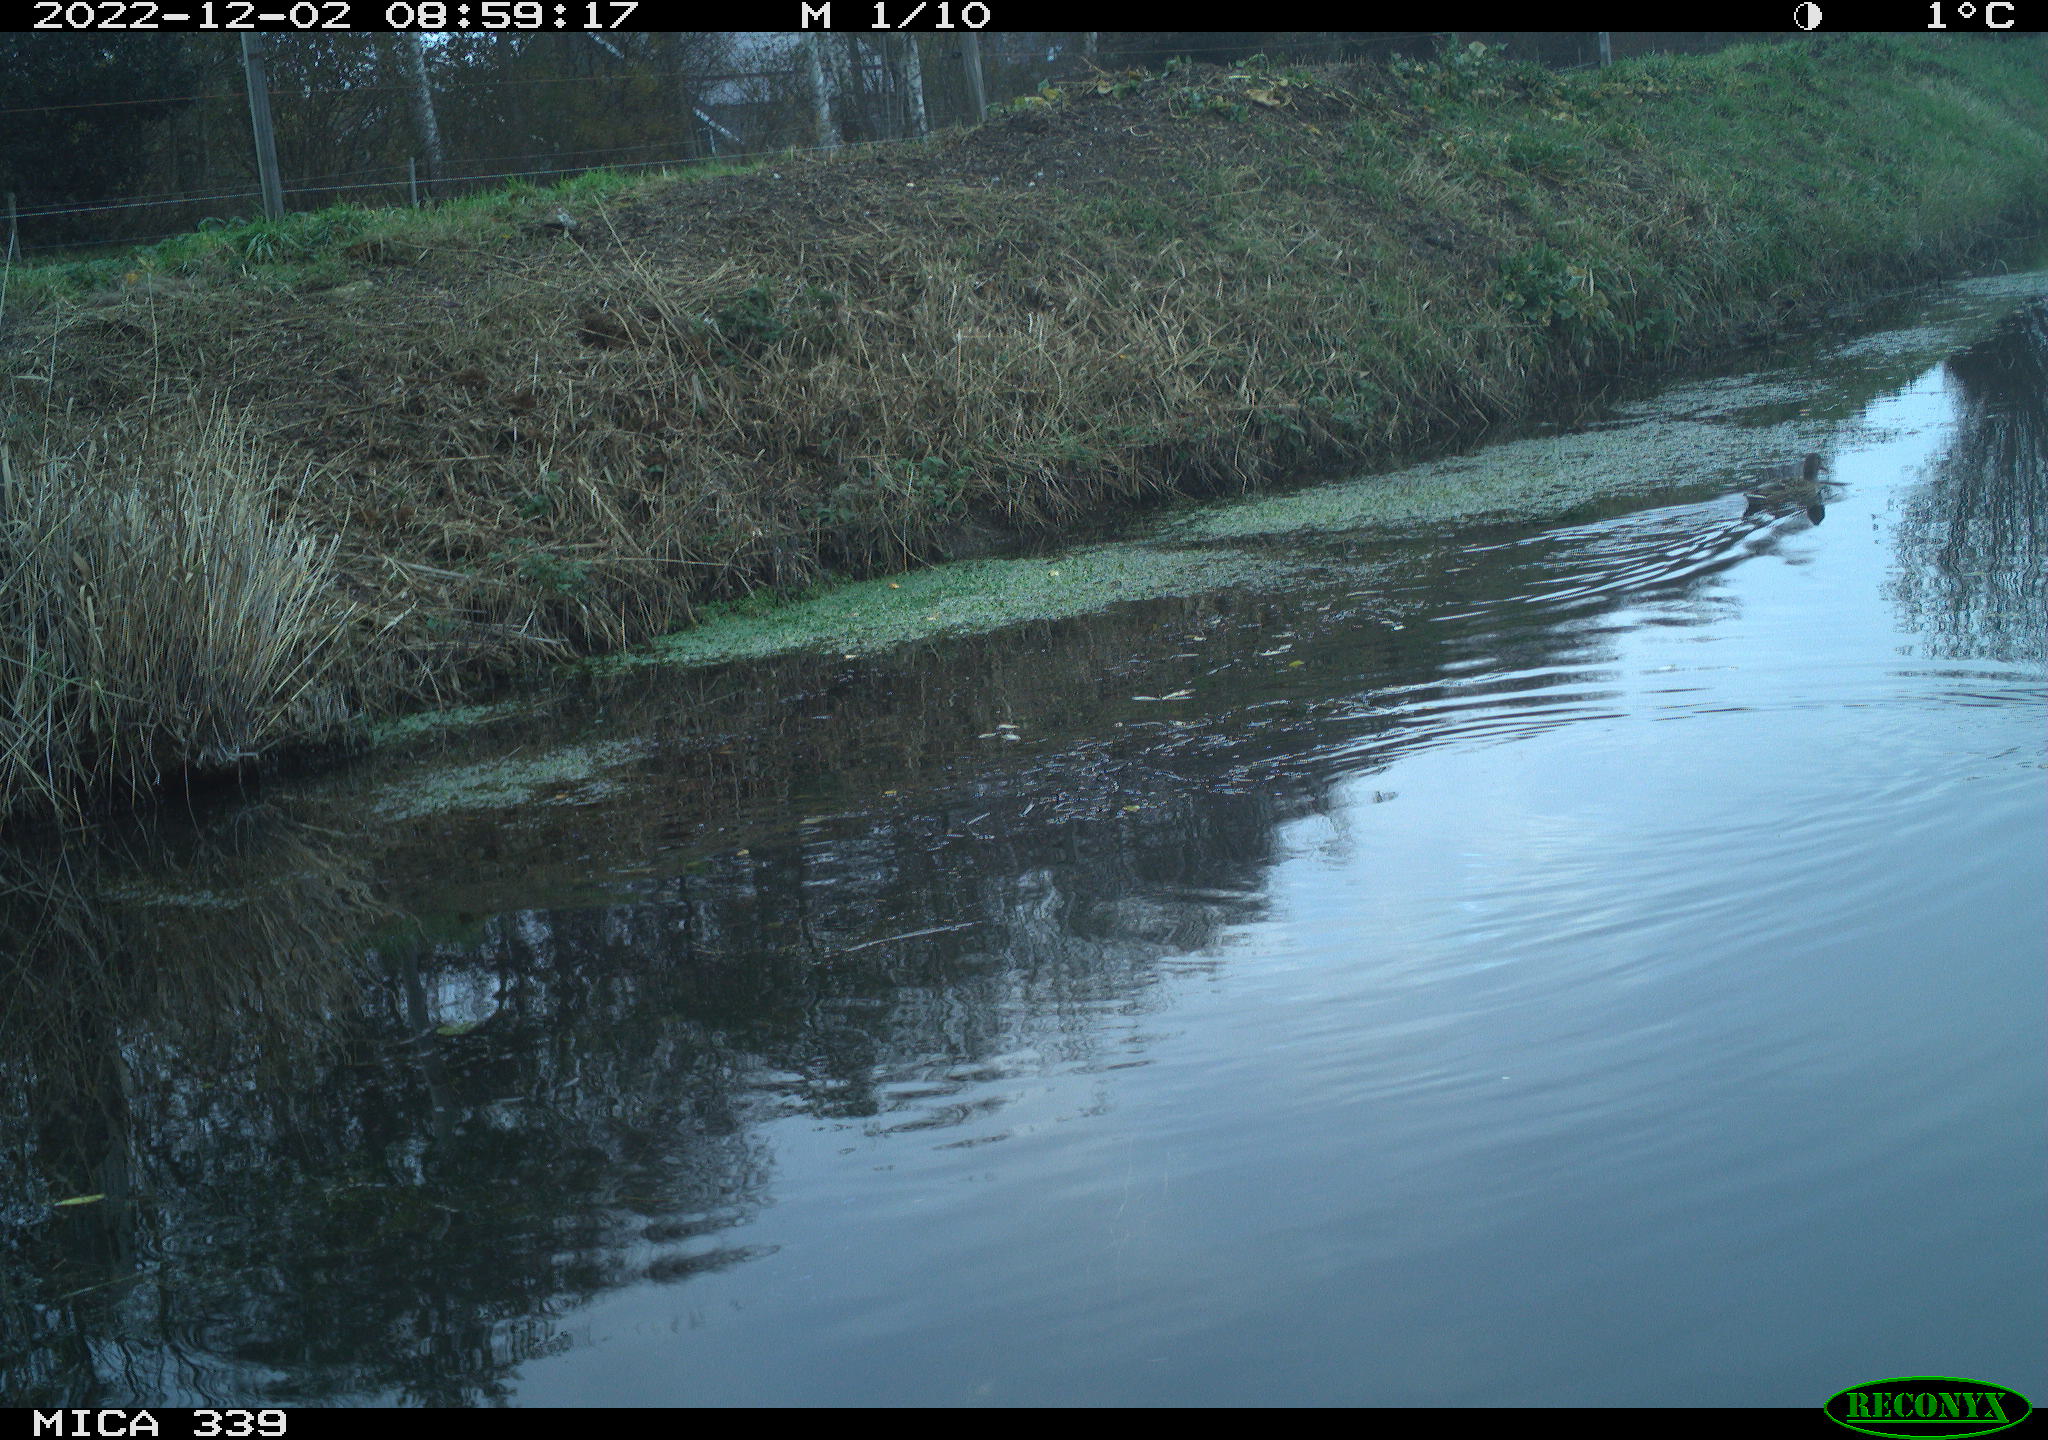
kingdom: Animalia
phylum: Chordata
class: Aves
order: Anseriformes
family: Anatidae
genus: Anas
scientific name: Anas platyrhynchos
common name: Mallard
